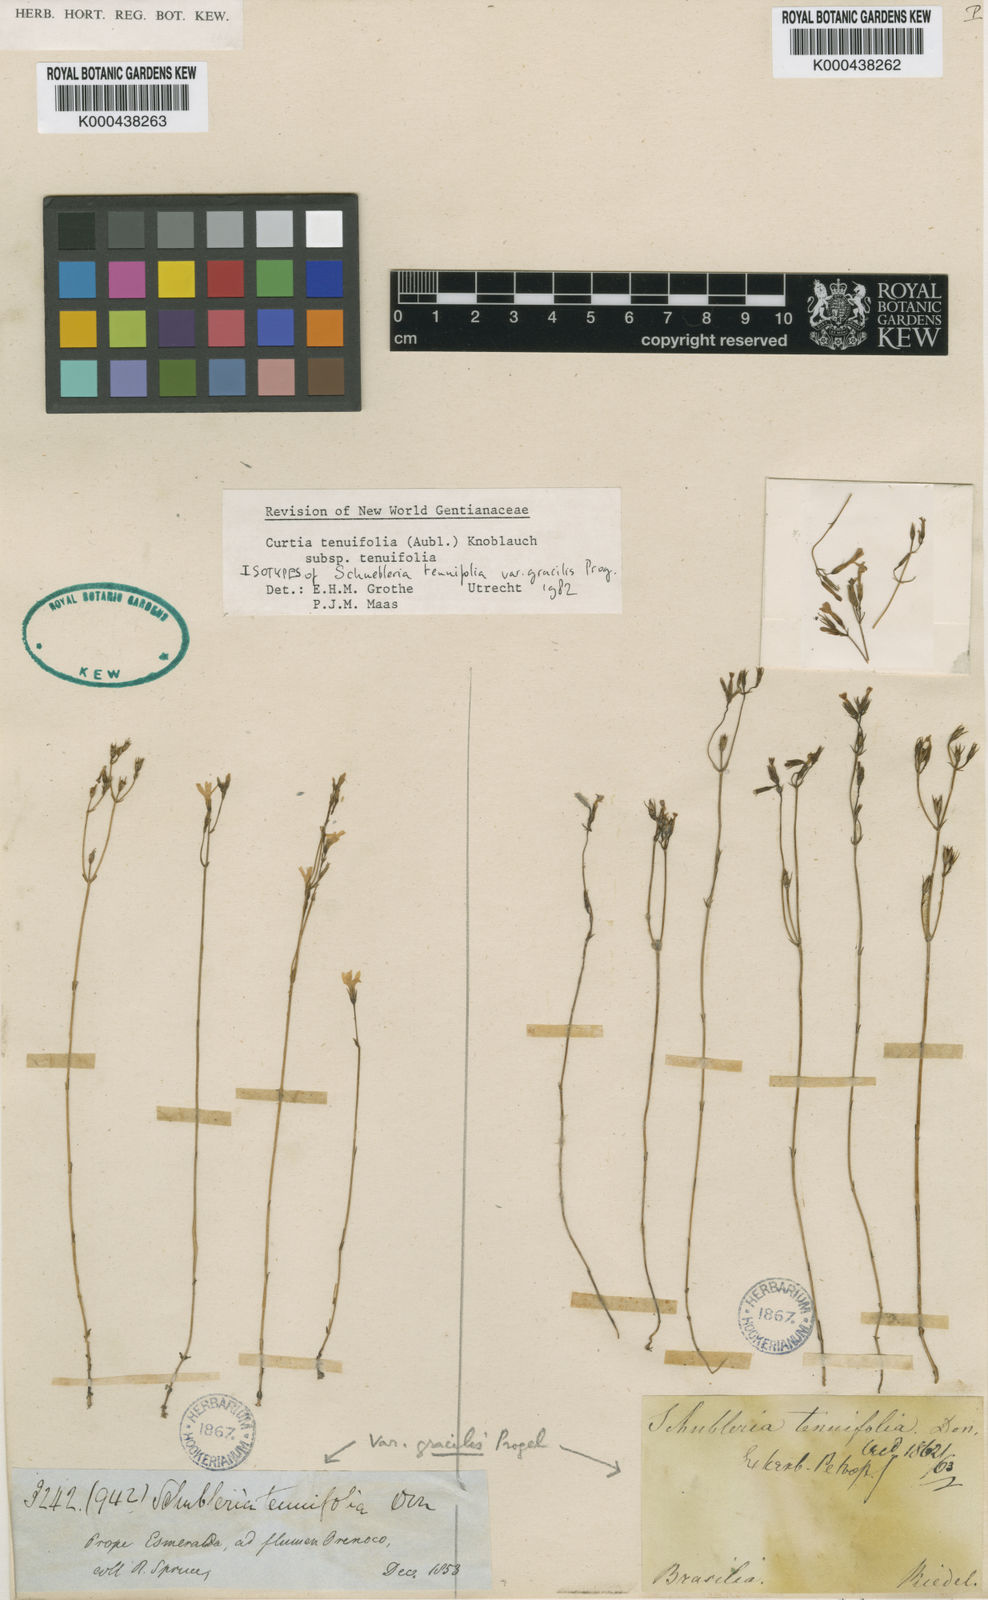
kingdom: Plantae
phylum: Tracheophyta
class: Magnoliopsida
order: Gentianales
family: Gentianaceae
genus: Curtia
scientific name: Curtia tenuifolia
